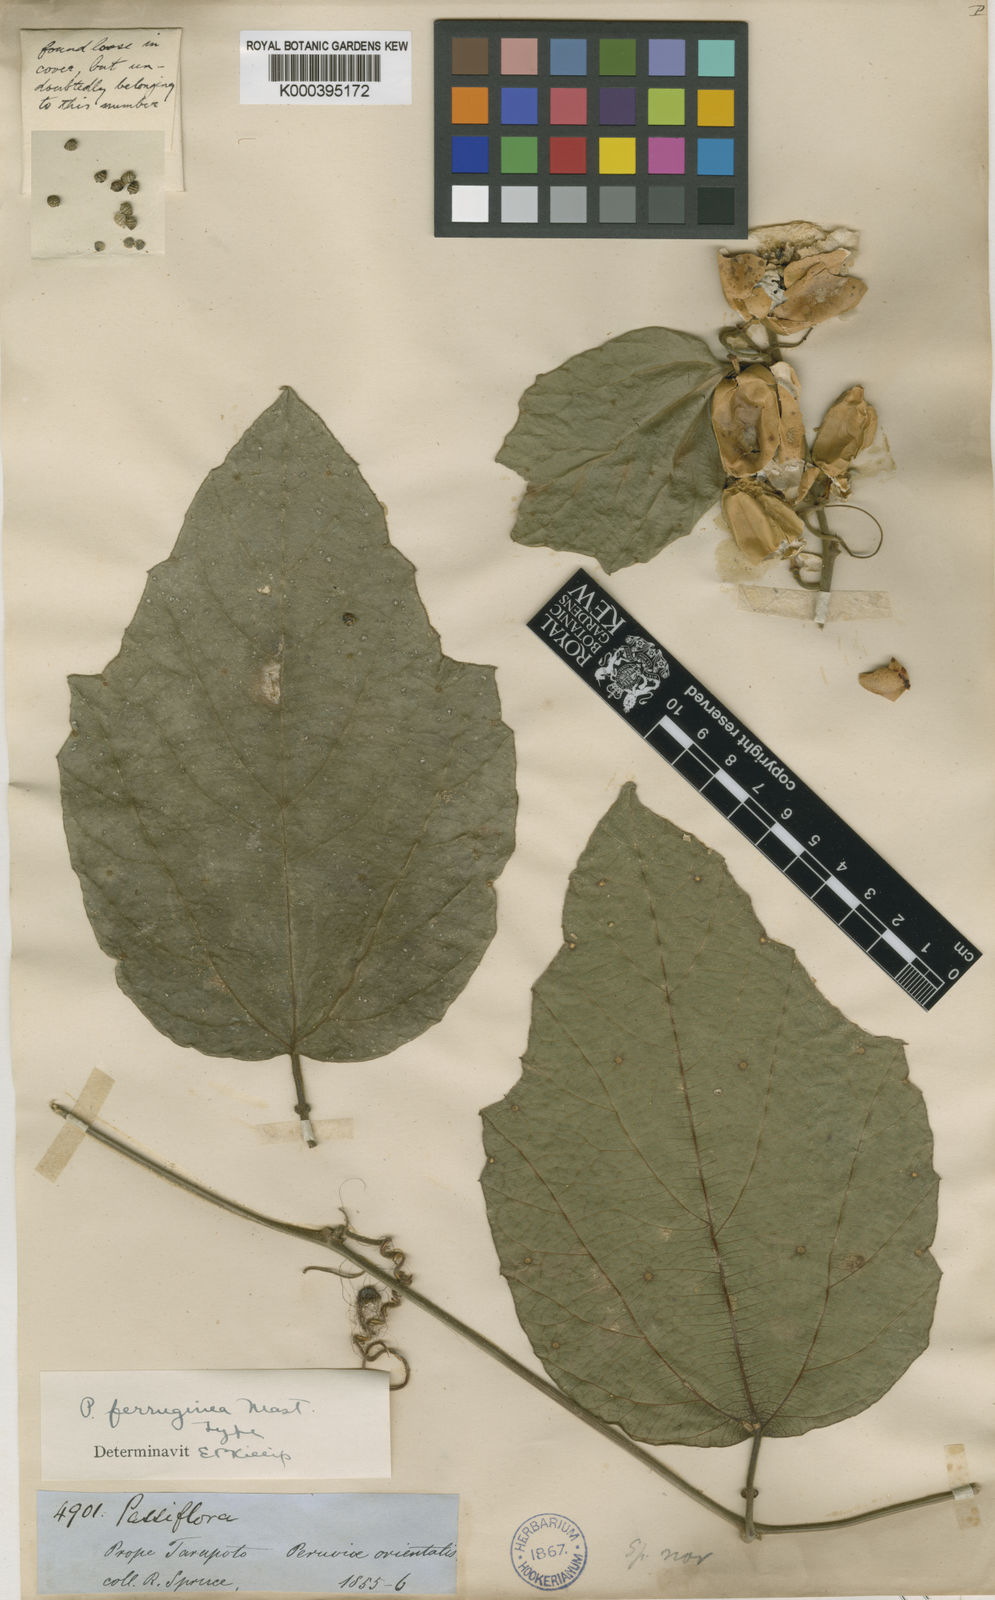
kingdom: Plantae
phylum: Tracheophyta
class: Magnoliopsida
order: Malpighiales
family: Passifloraceae
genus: Passiflora
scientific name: Passiflora ferruginea
